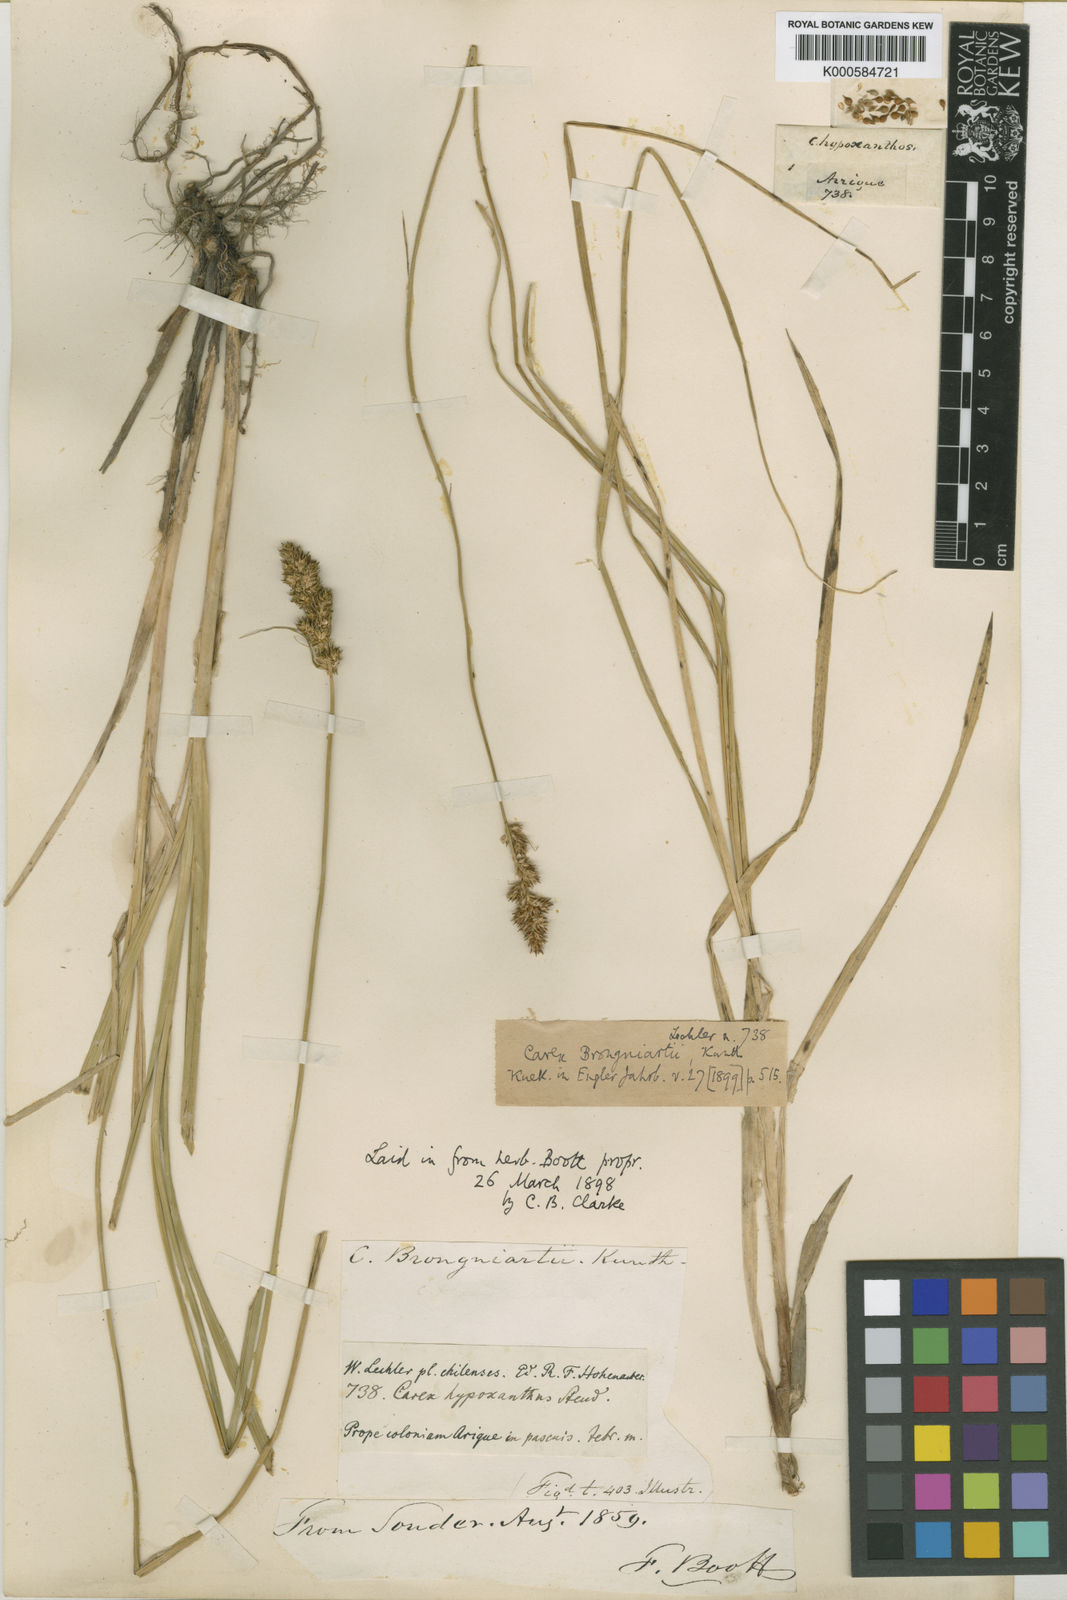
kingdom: Plantae
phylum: Tracheophyta
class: Liliopsida
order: Poales
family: Cyperaceae
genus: Carex
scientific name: Carex brongniartii
